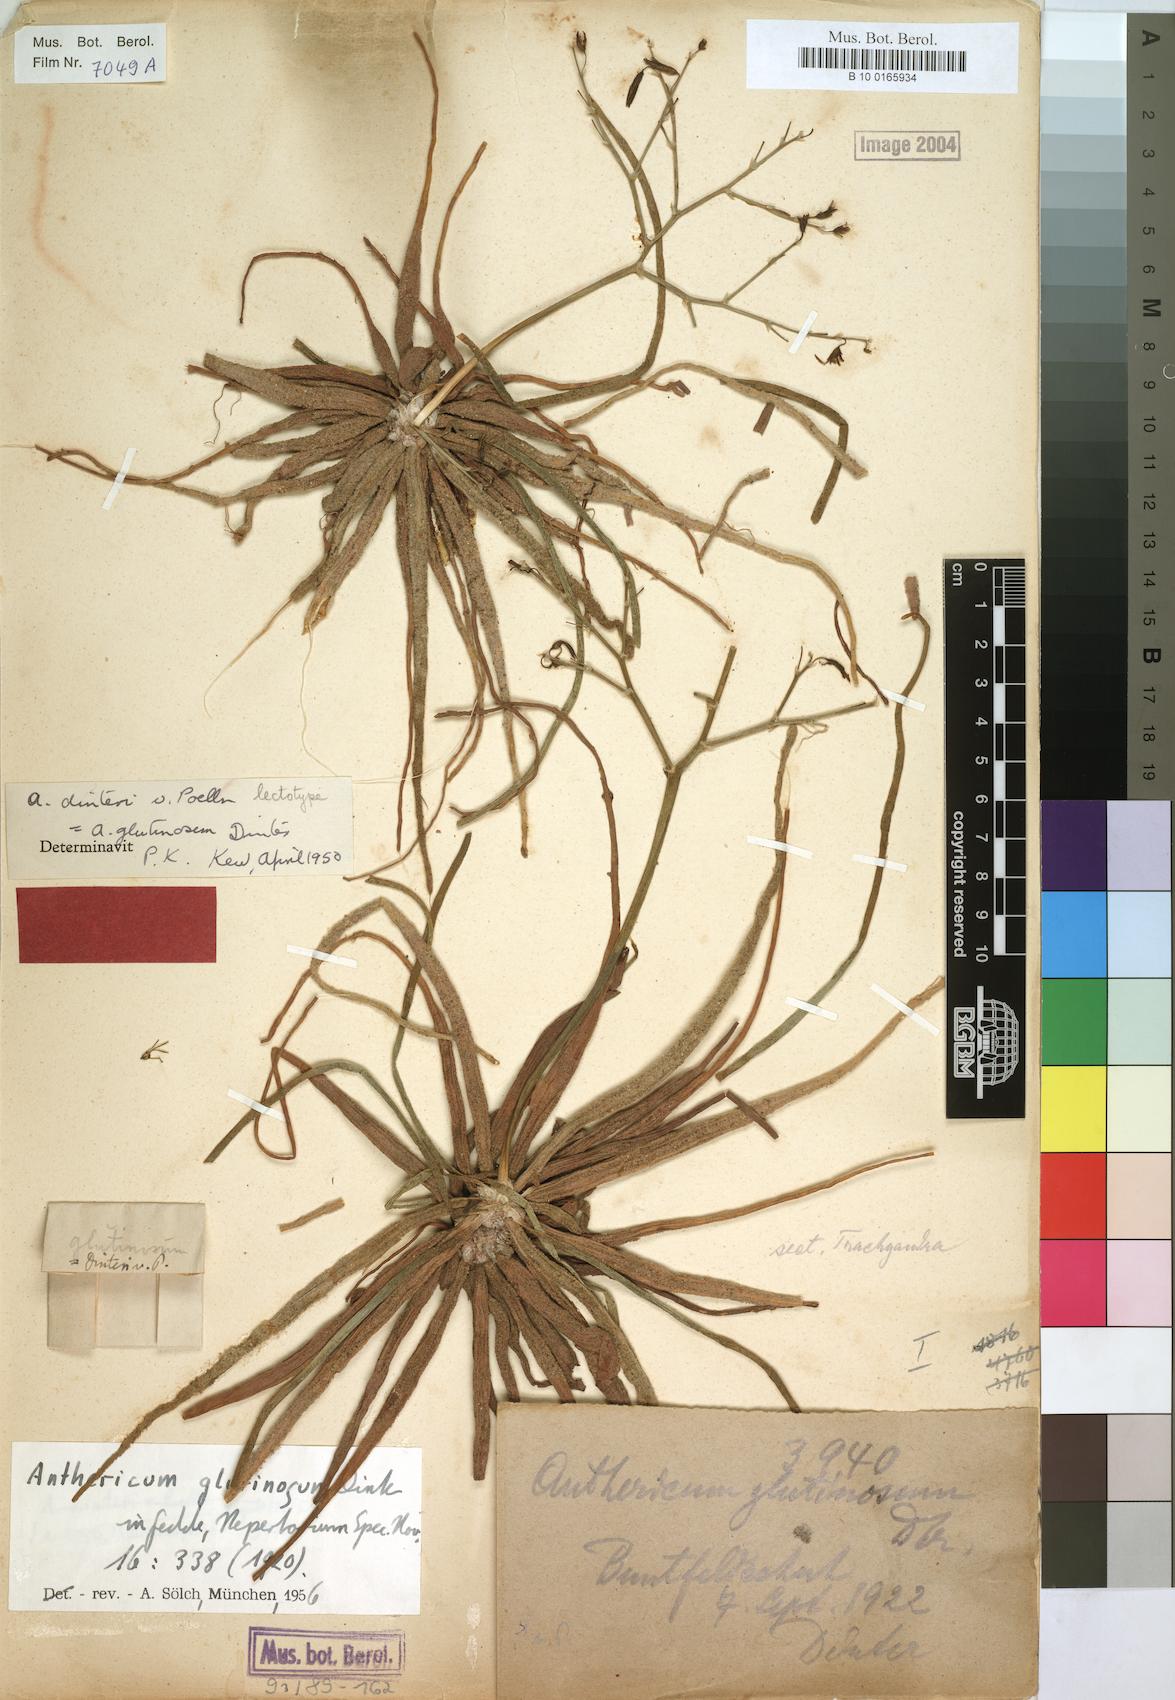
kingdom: Plantae
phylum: Tracheophyta
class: Liliopsida
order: Asparagales
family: Asphodelaceae
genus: Trachyandra
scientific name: Trachyandra laxa
